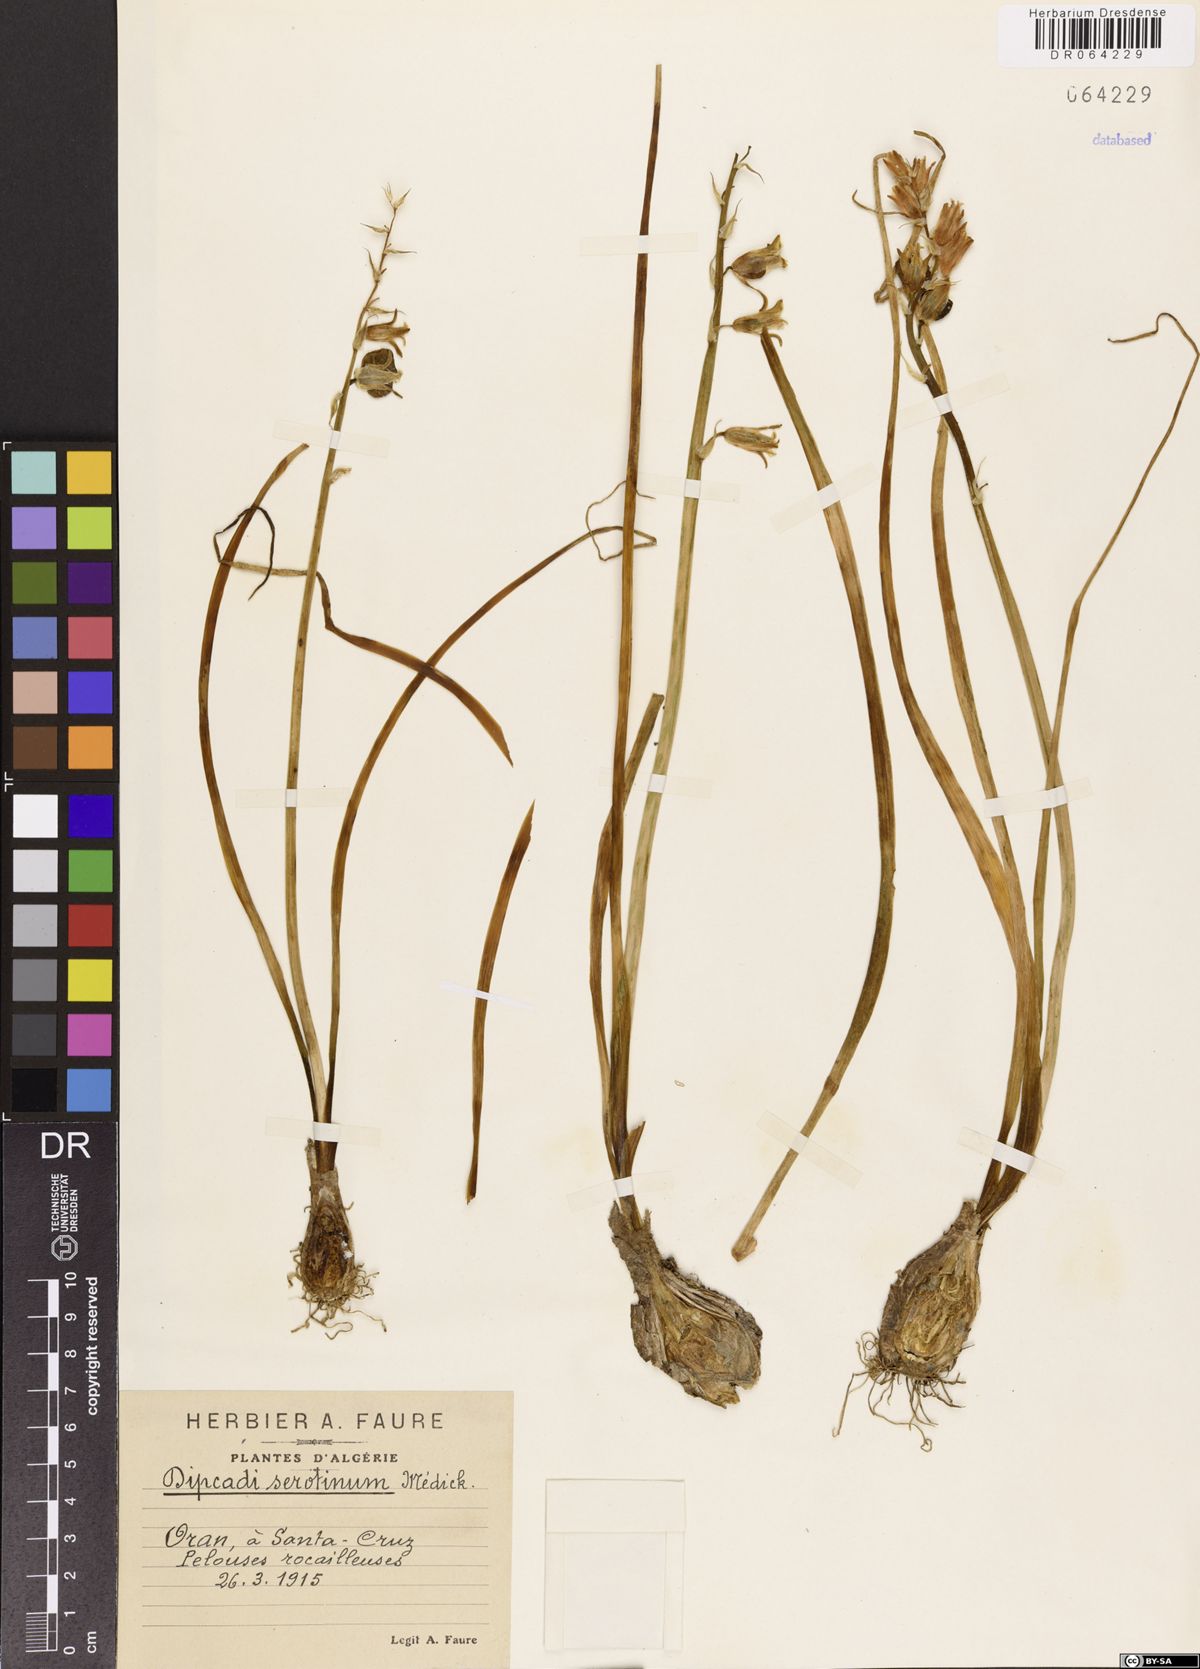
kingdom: Plantae
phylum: Tracheophyta
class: Liliopsida
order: Asparagales
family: Asparagaceae
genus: Dipcadi
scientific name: Dipcadi serotinum
